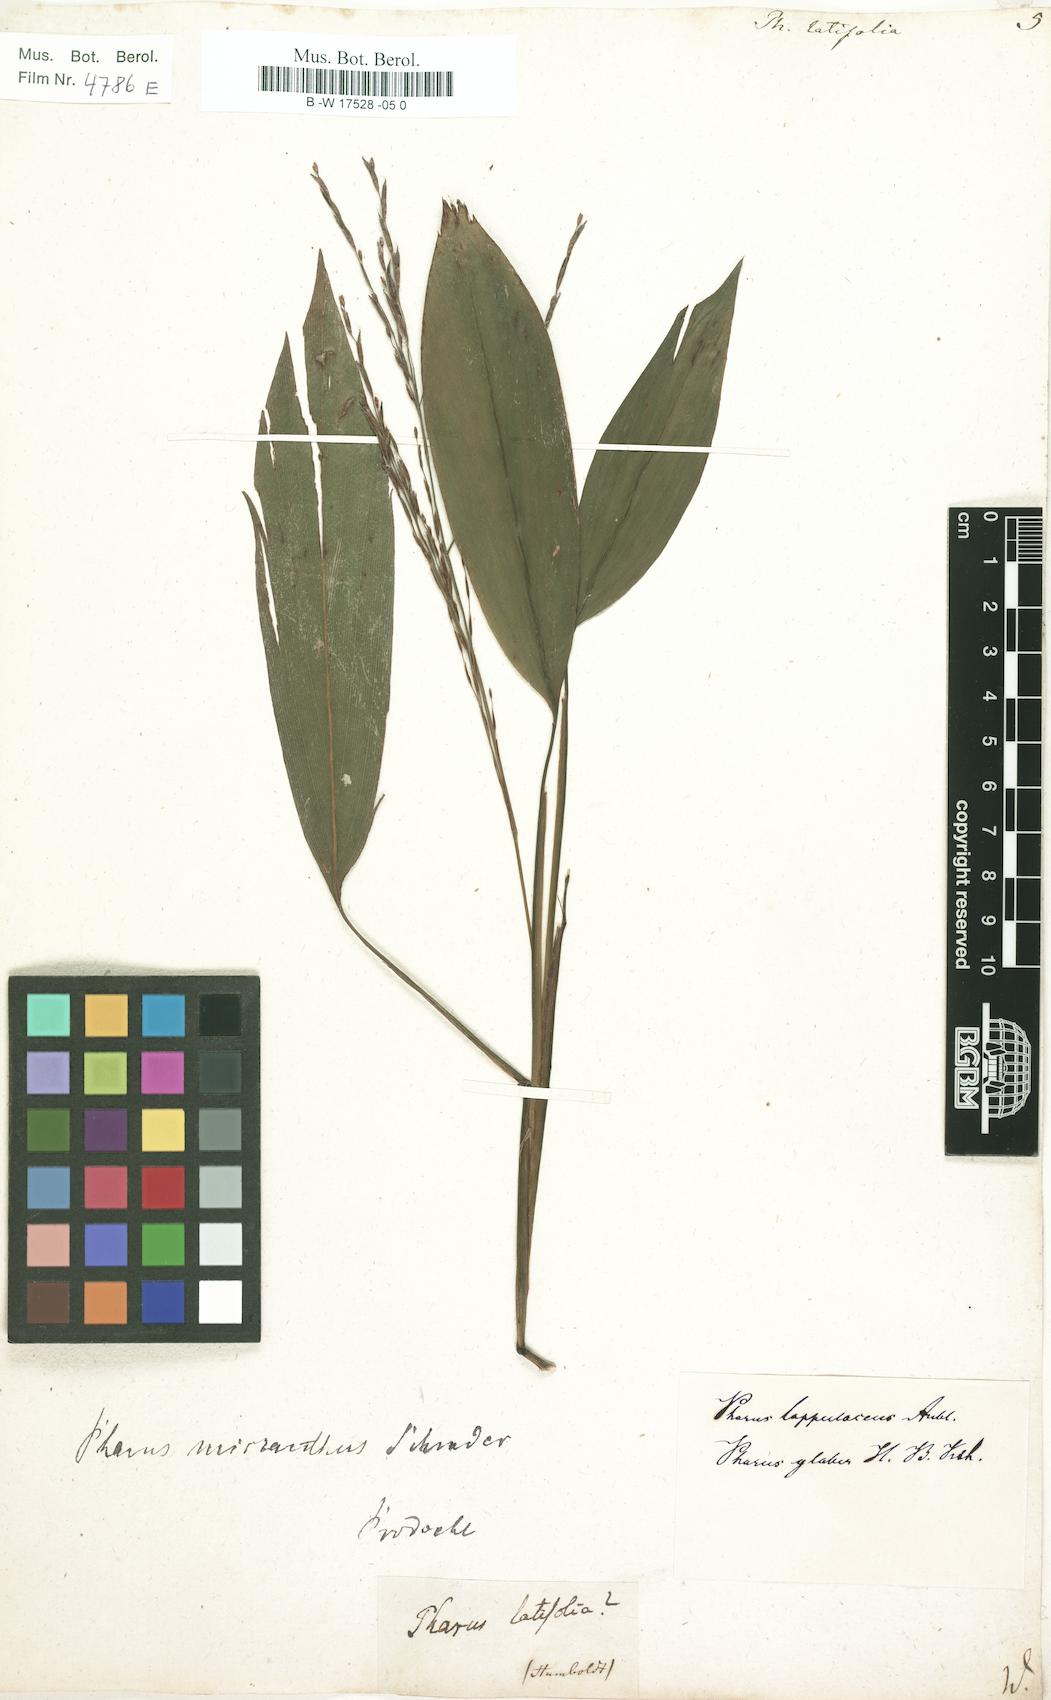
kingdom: Plantae
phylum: Tracheophyta
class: Liliopsida
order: Poales
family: Poaceae
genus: Pharus
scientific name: Pharus latifolius
